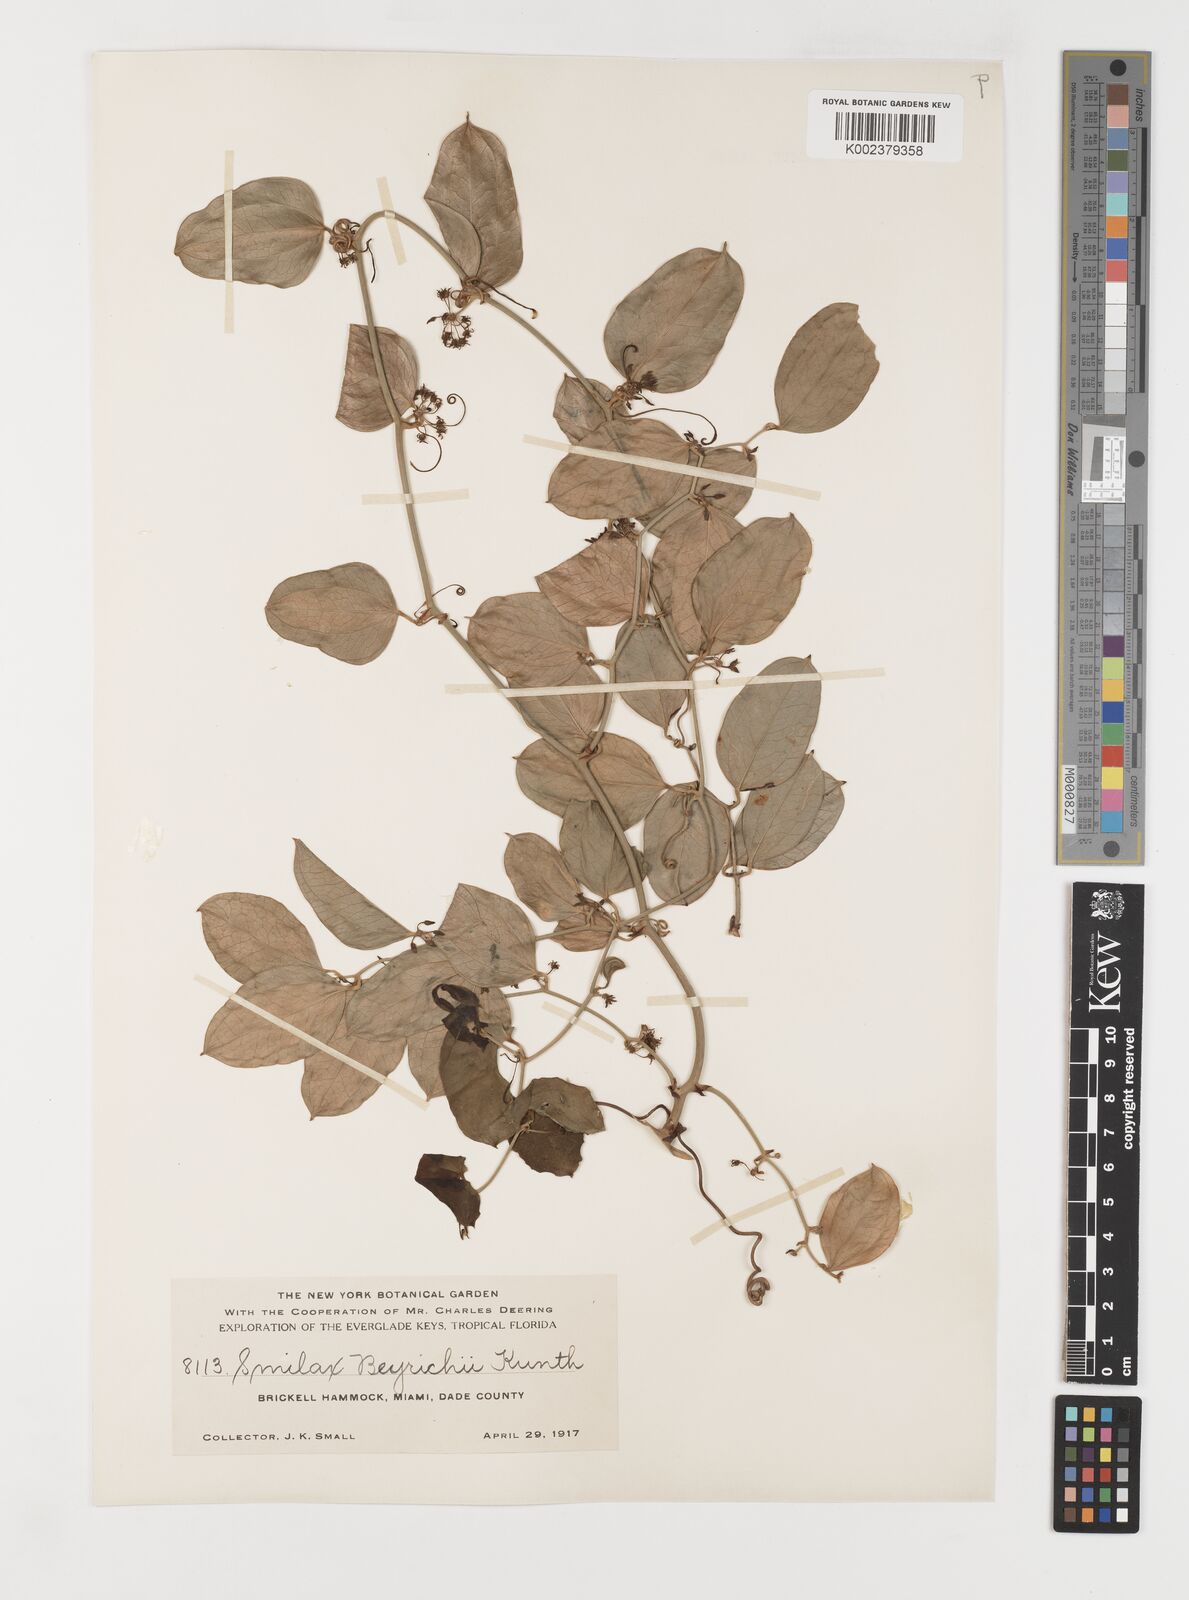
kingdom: Plantae
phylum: Tracheophyta
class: Liliopsida
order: Liliales
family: Smilacaceae
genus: Smilax
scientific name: Smilax auriculata
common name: Wild bamboo
